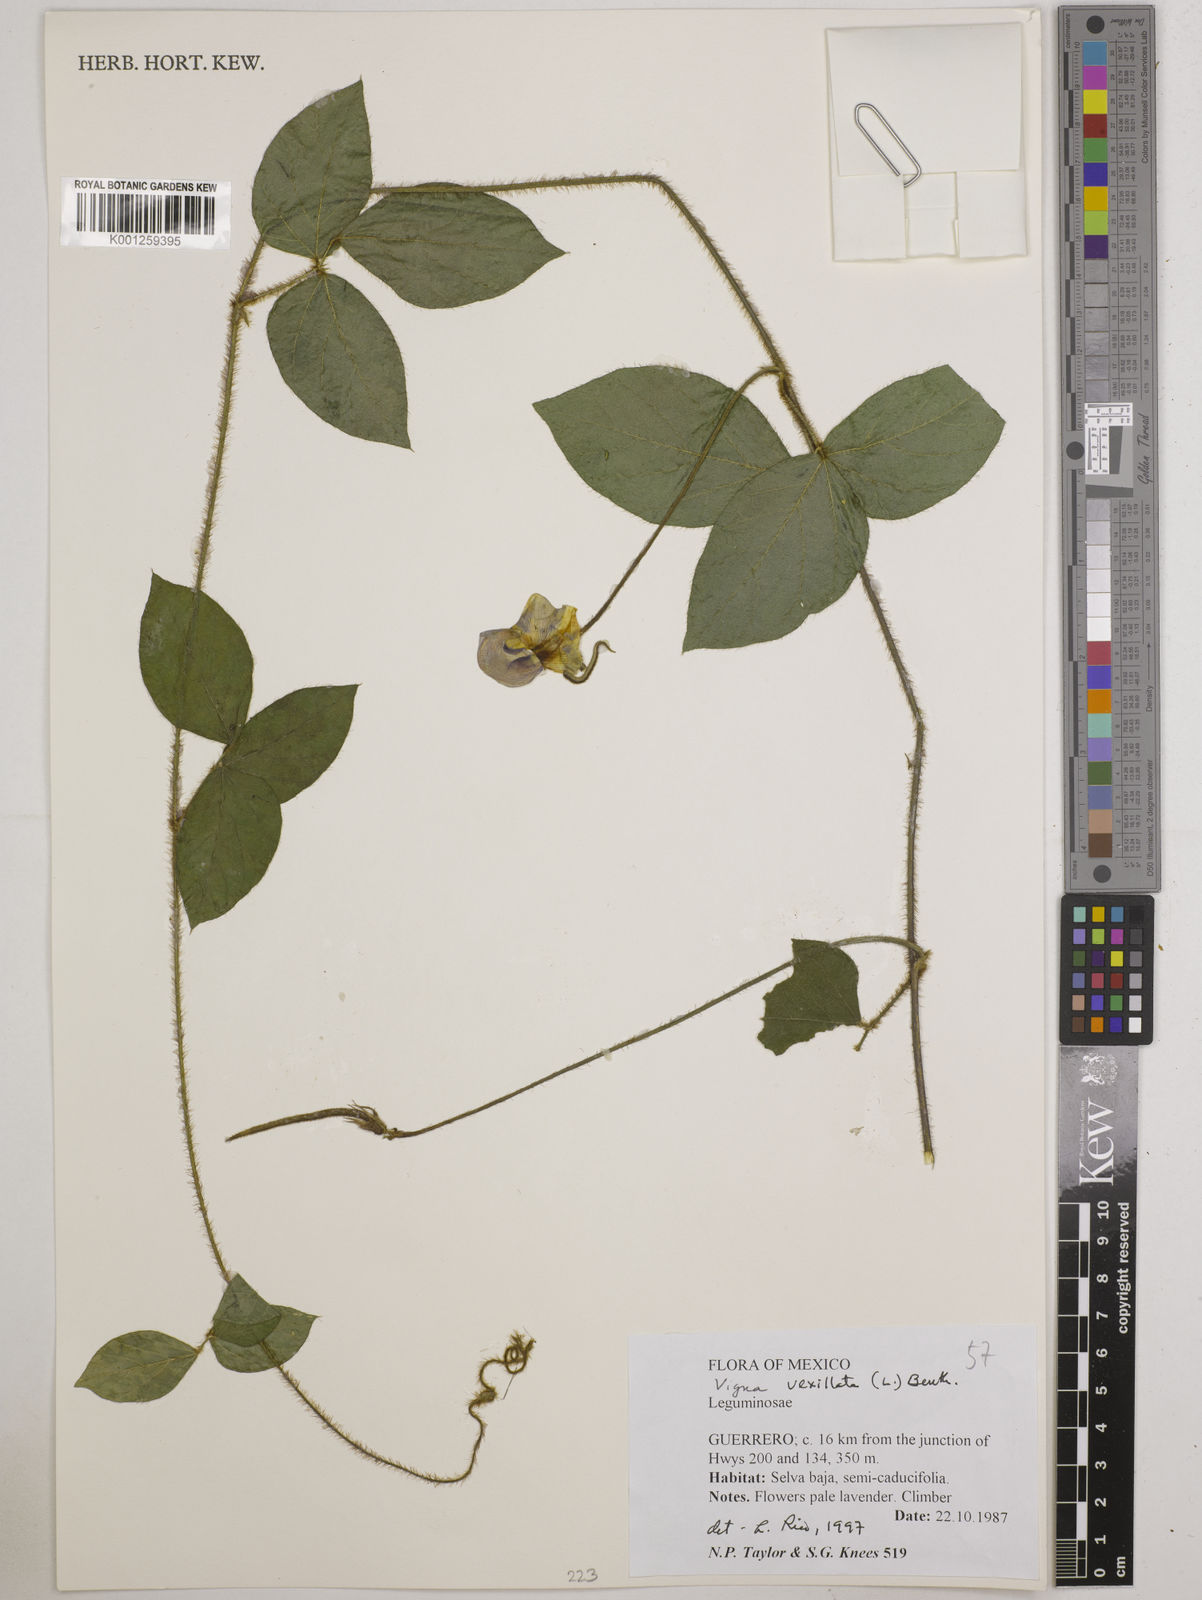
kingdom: Plantae
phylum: Tracheophyta
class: Magnoliopsida
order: Fabales
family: Fabaceae
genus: Vigna
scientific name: Vigna vexillata
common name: Zombi pea
